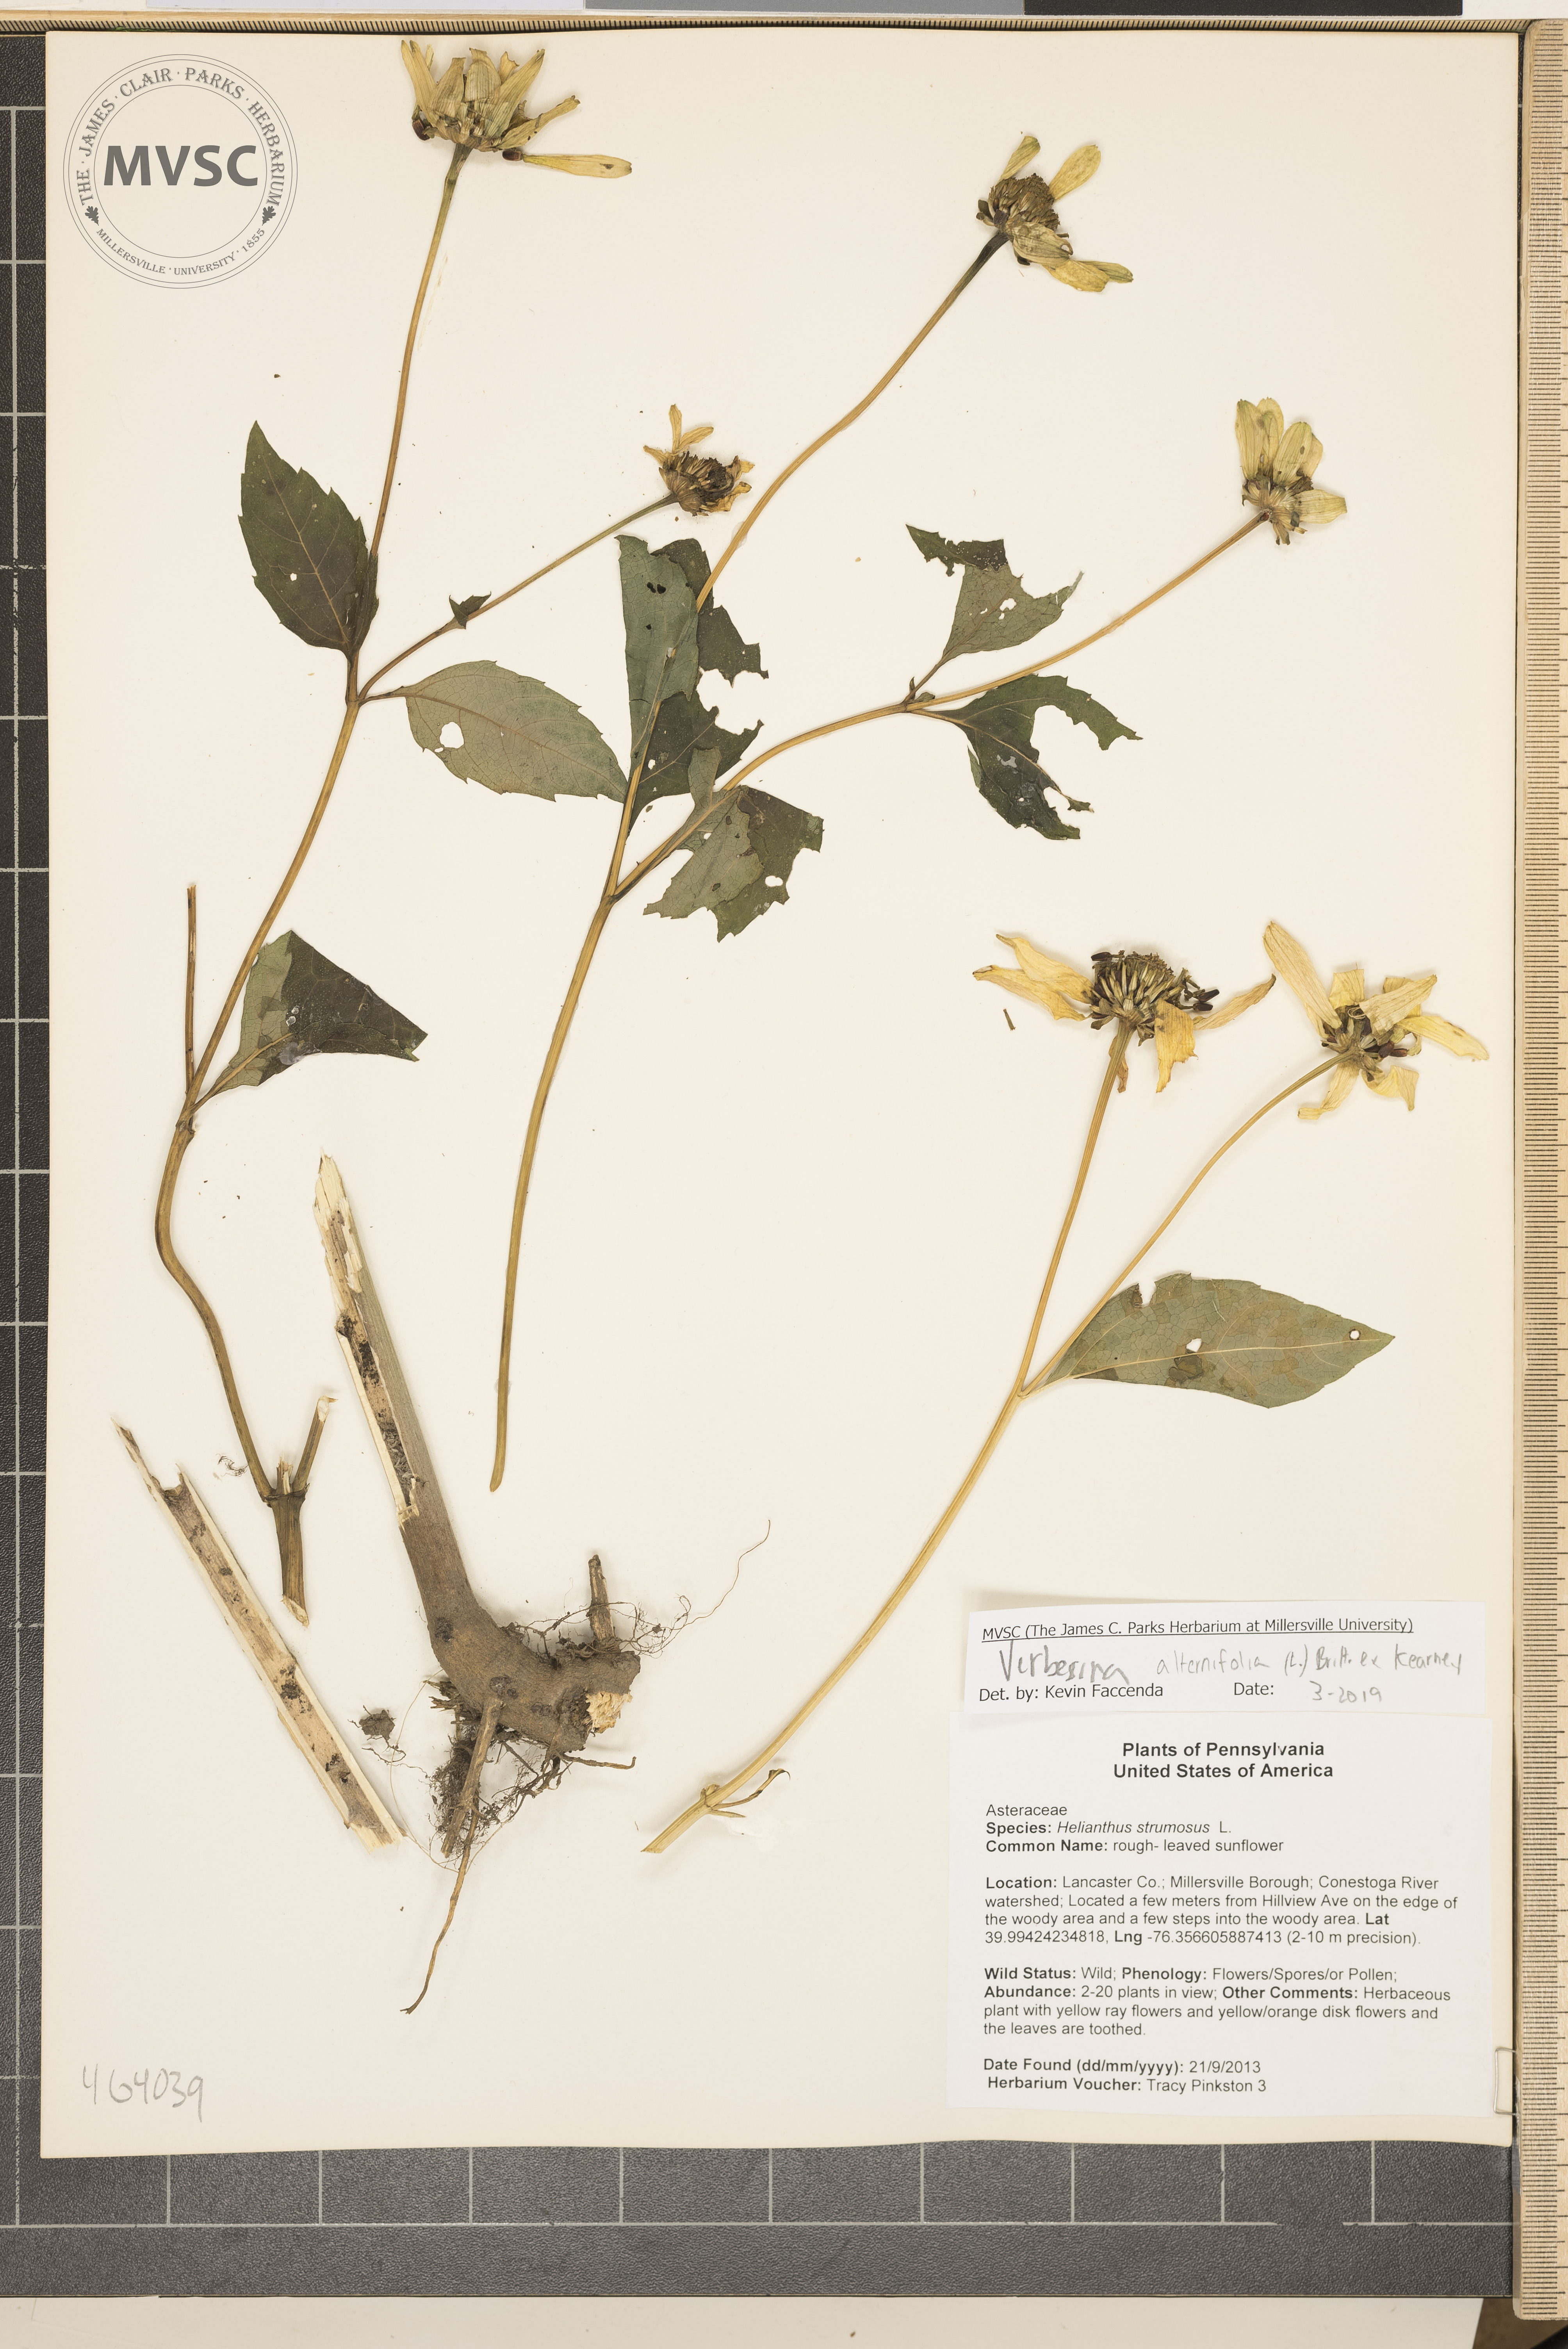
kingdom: Plantae
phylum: Tracheophyta
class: Magnoliopsida
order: Asterales
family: Asteraceae
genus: Verbesina
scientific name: Verbesina alternifolia
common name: Wingstem
